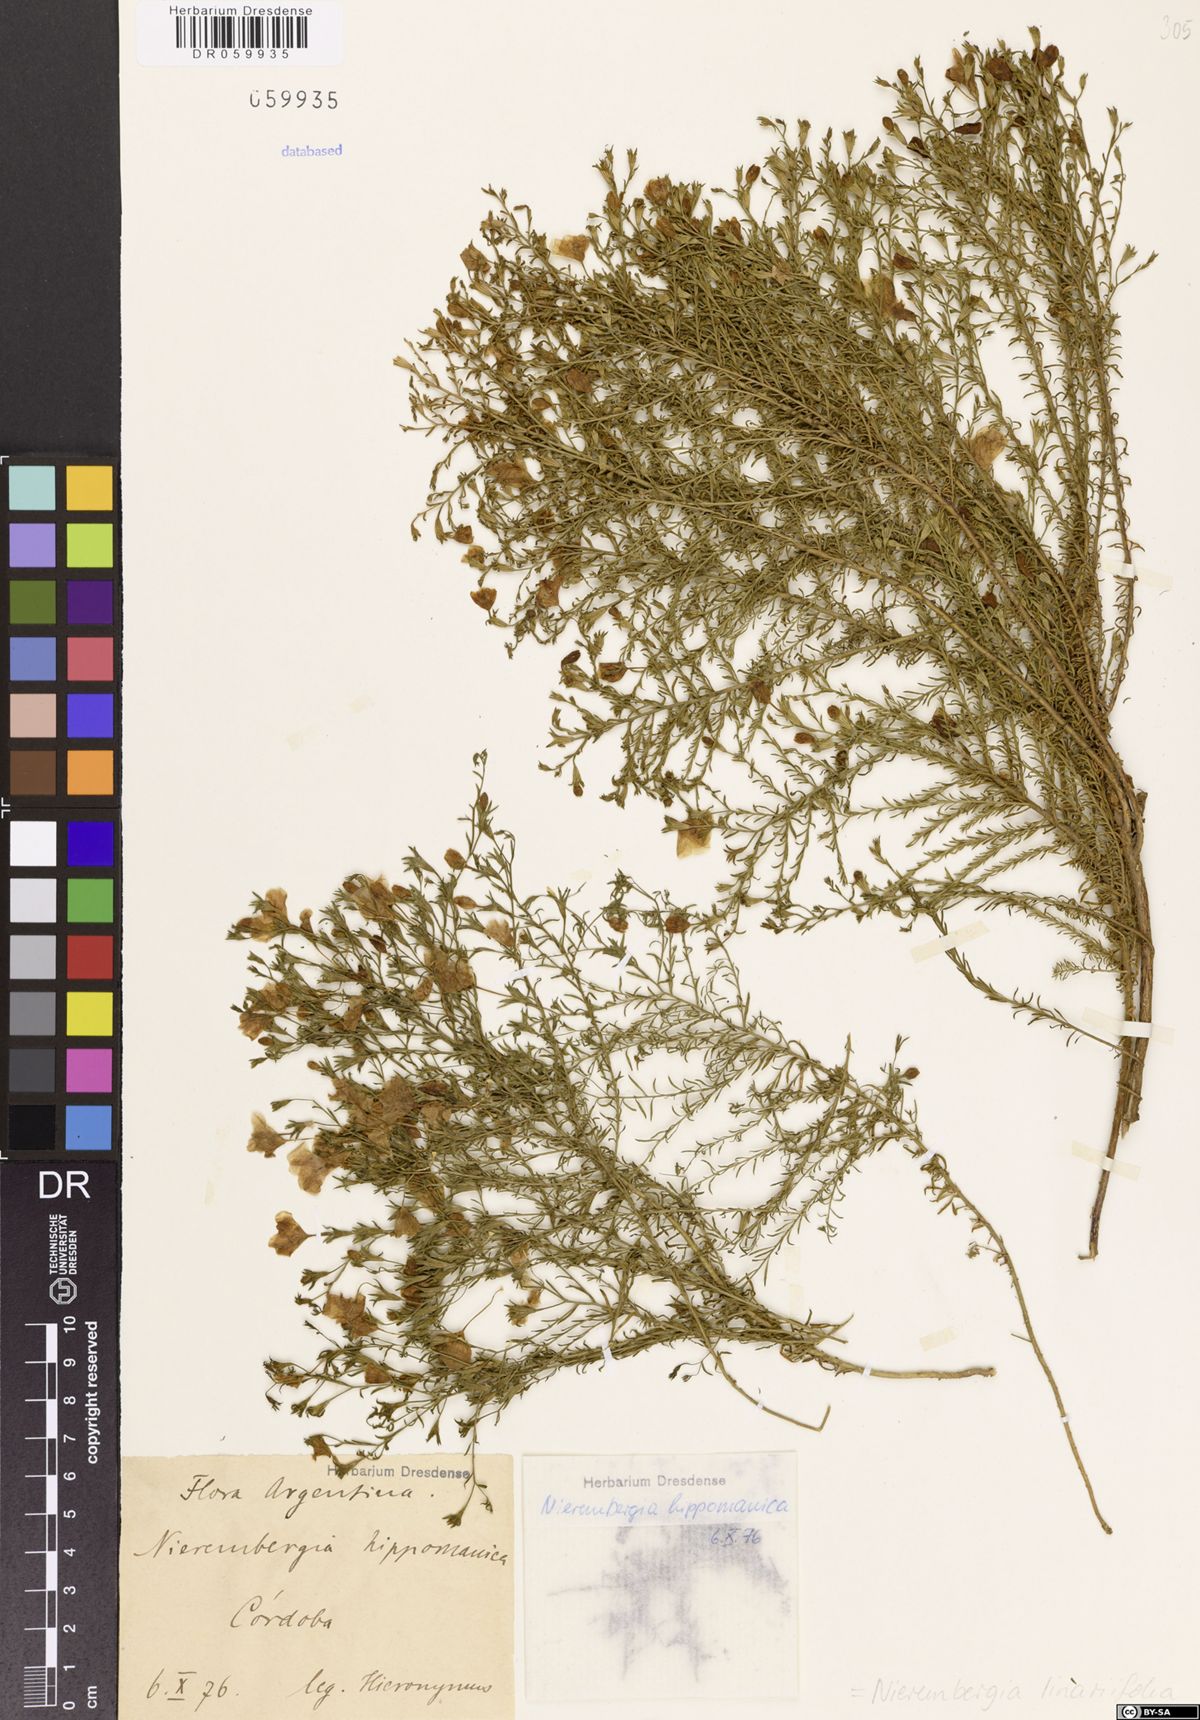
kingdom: Plantae
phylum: Tracheophyta
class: Magnoliopsida
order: Solanales
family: Solanaceae
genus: Nierembergia
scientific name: Nierembergia linariifolia
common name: Dwarf cupflower
